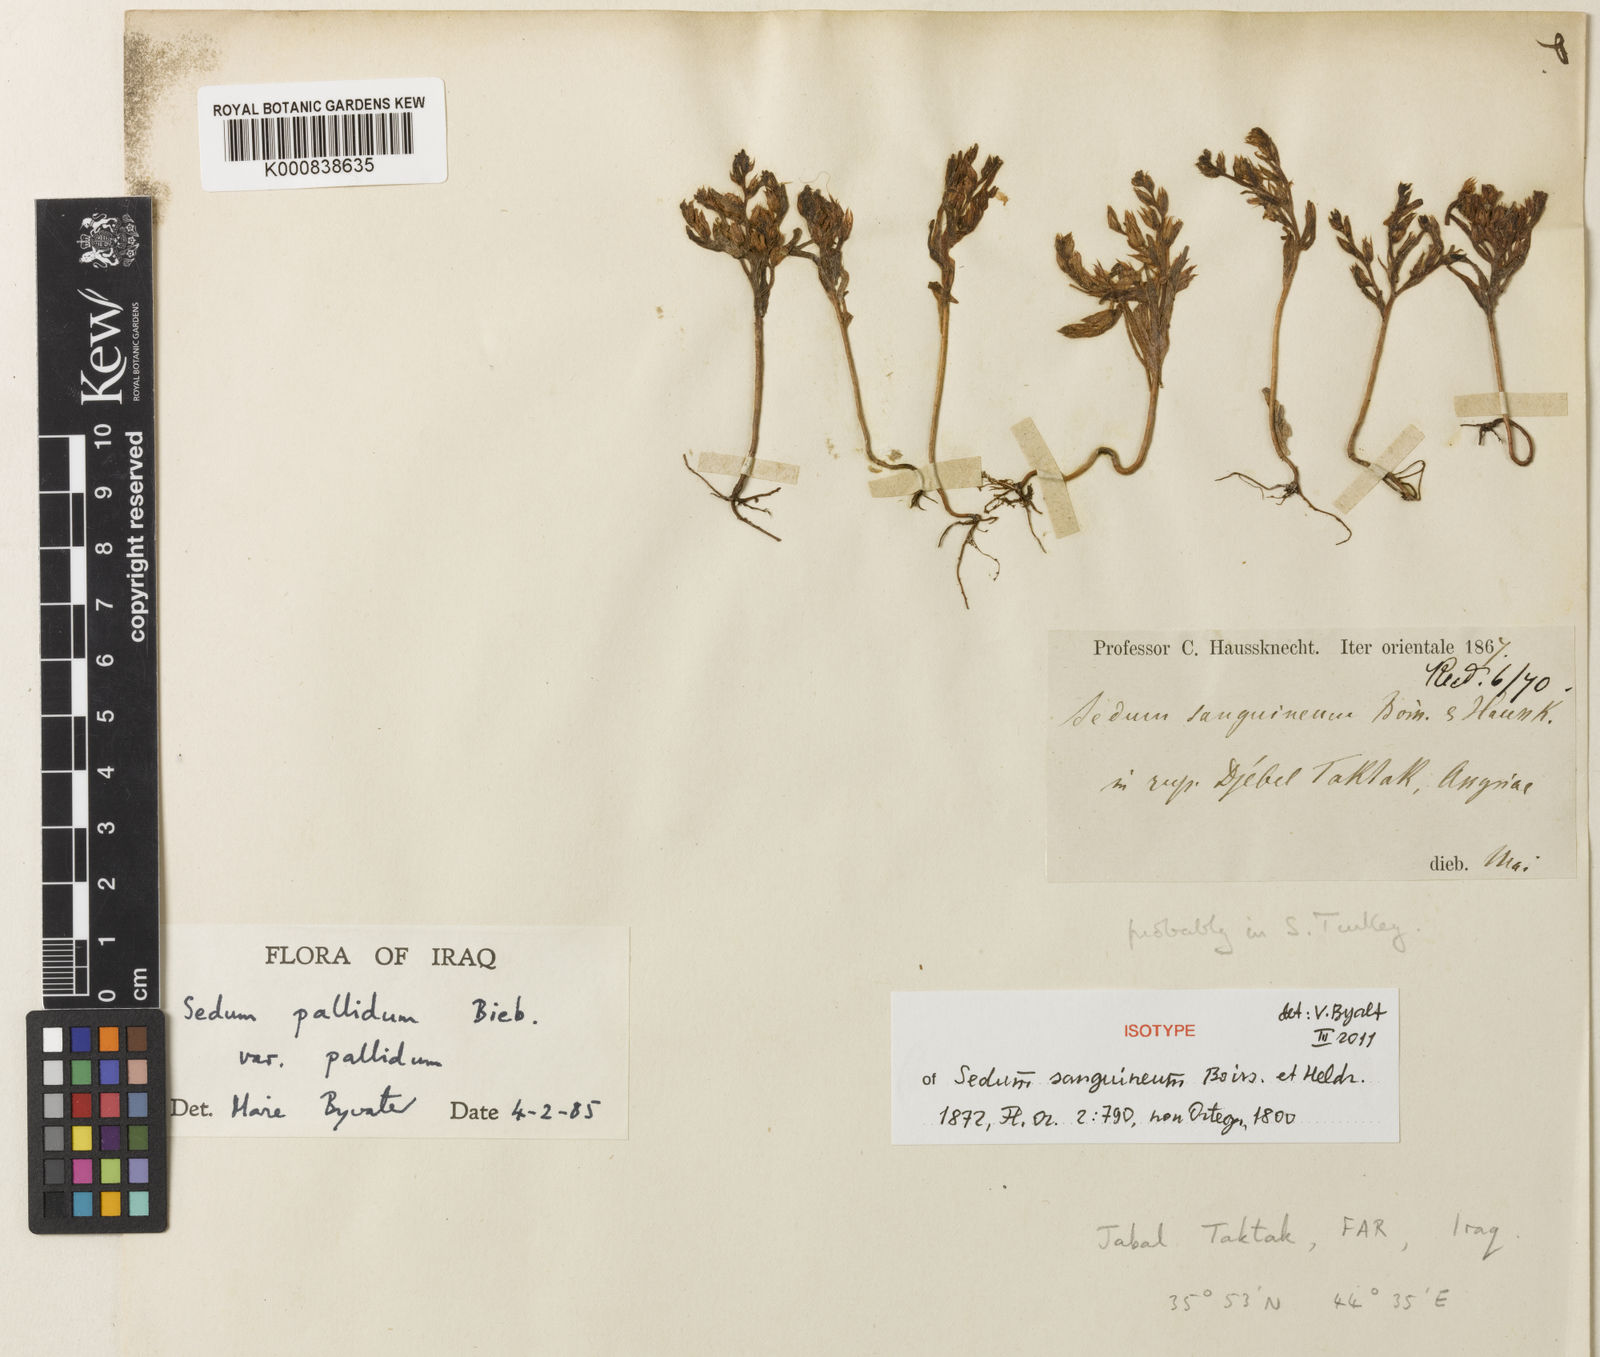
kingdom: Plantae
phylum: Tracheophyta
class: Magnoliopsida
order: Saxifragales
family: Crassulaceae
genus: Sedum
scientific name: Sedum pallidum
